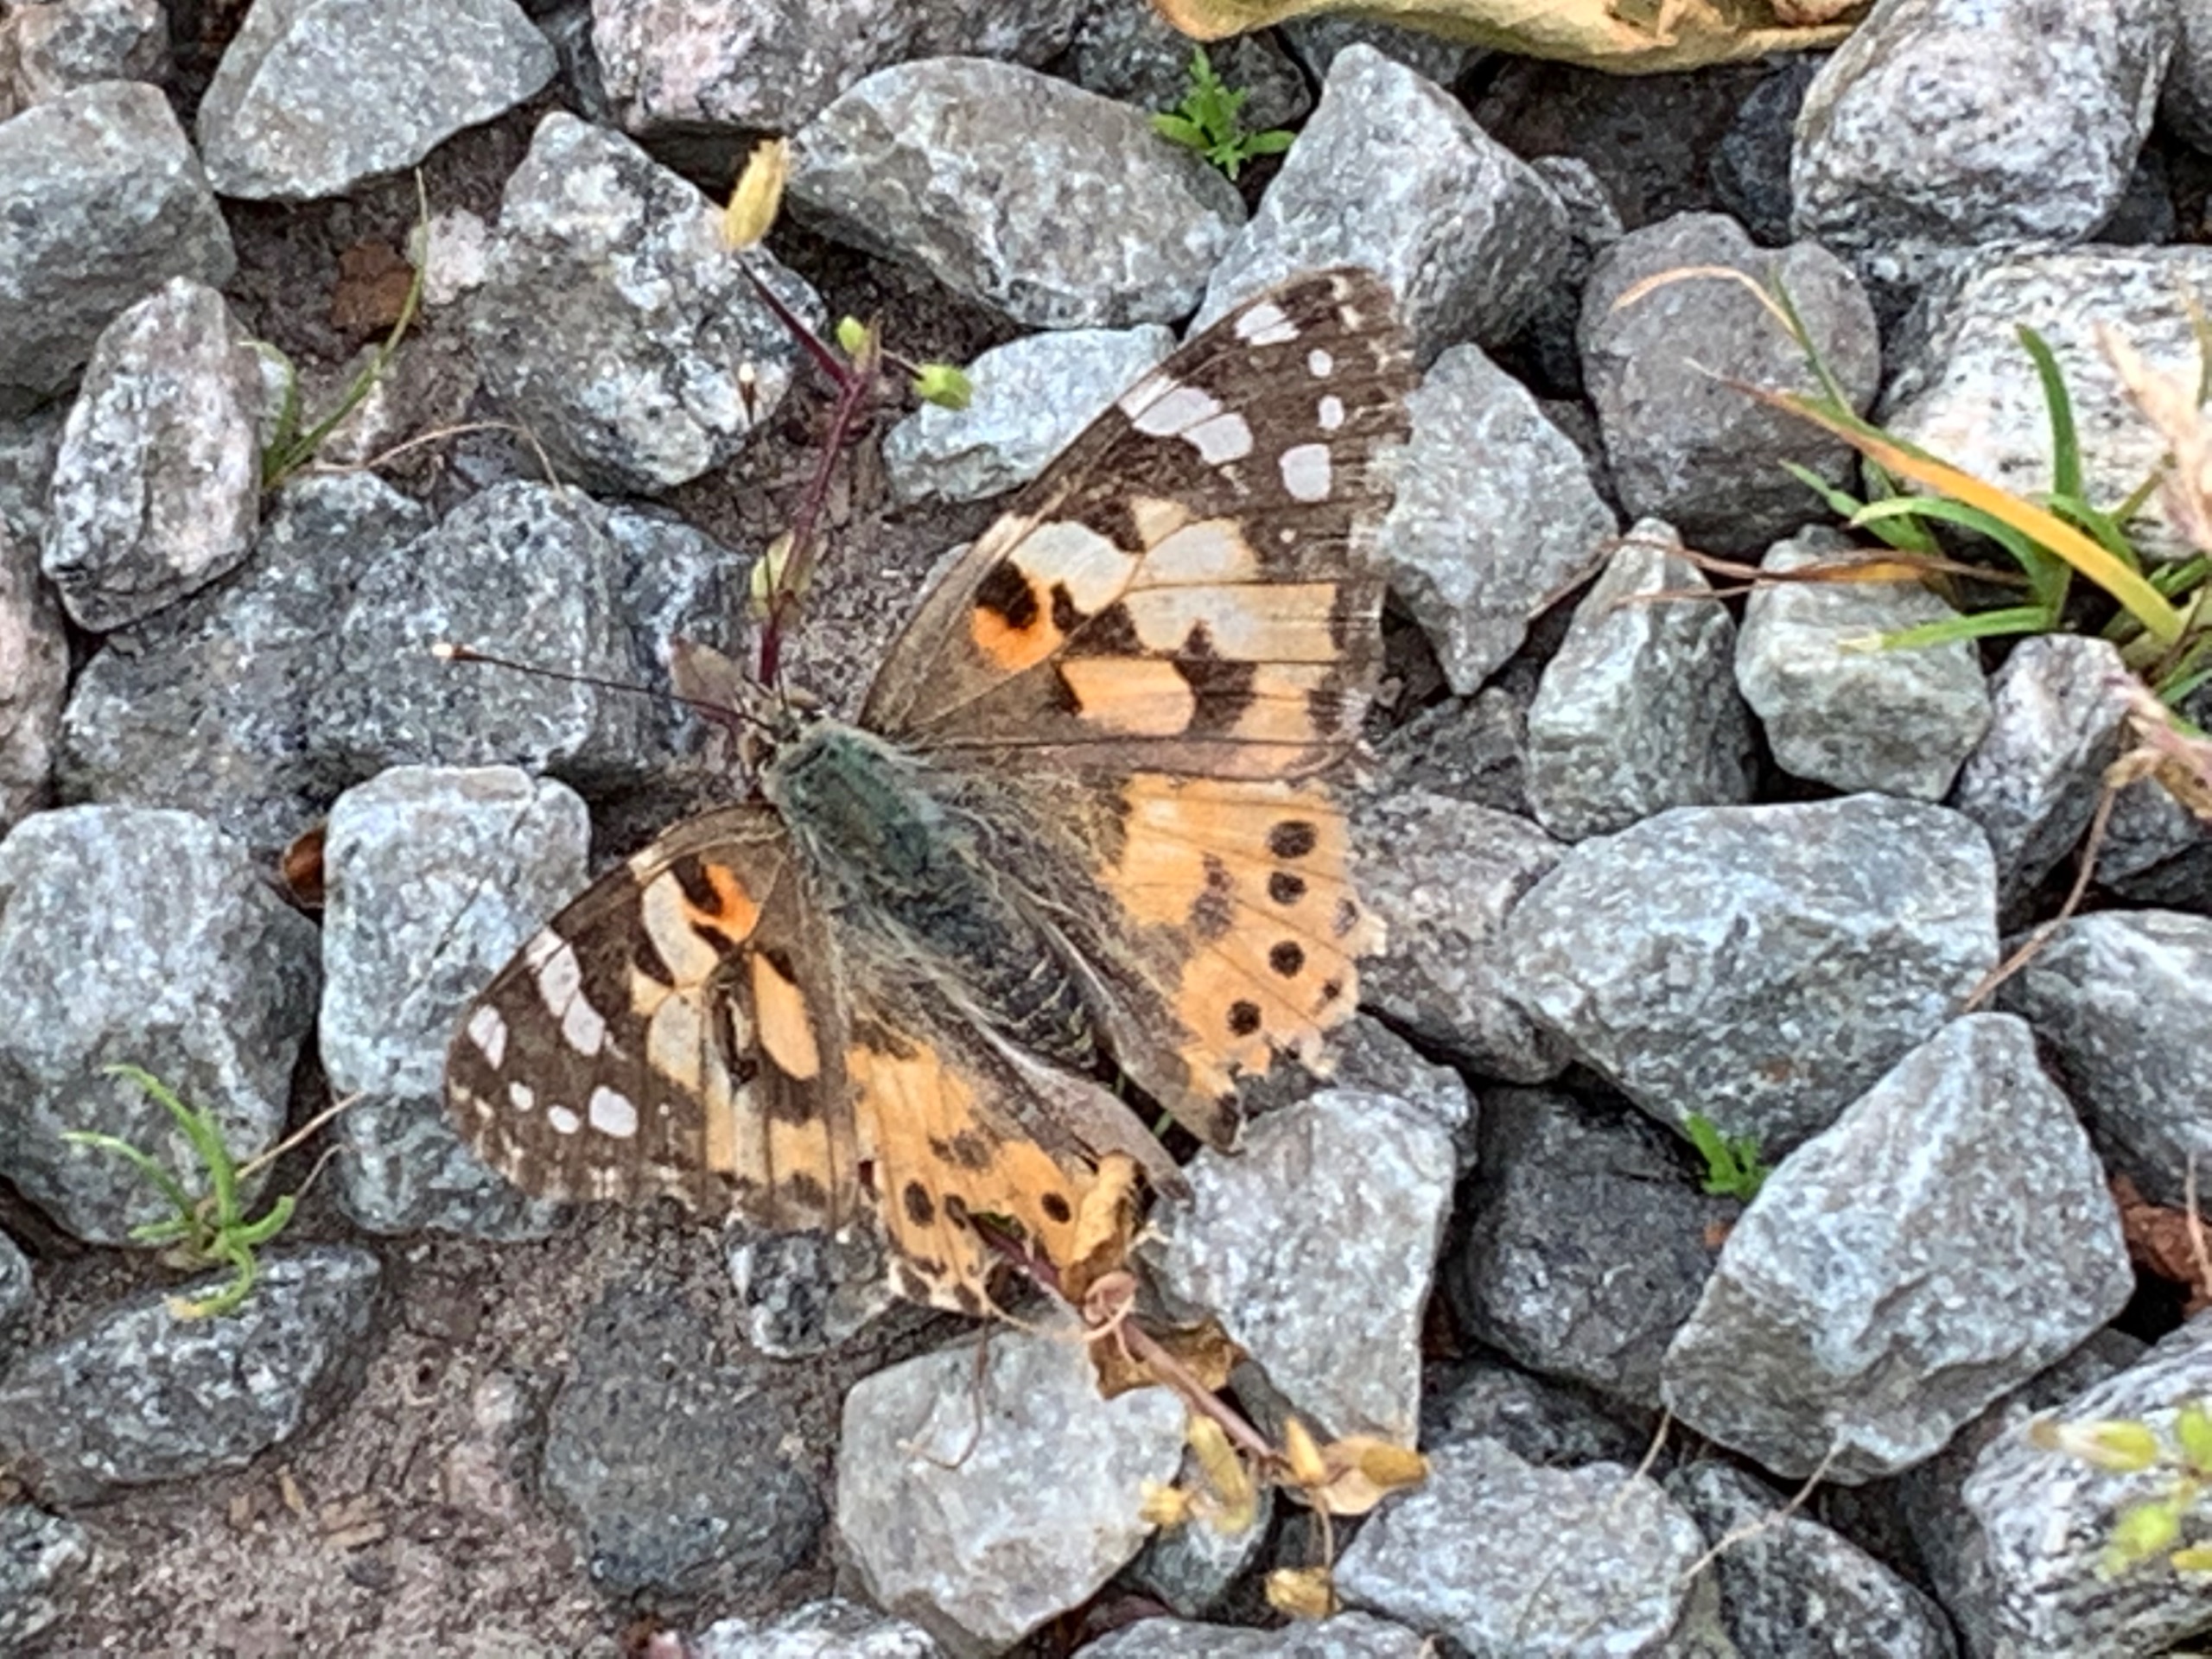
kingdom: Animalia
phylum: Arthropoda
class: Insecta
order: Lepidoptera
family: Nymphalidae
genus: Vanessa
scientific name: Vanessa cardui
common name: Tidselsommerfugl
